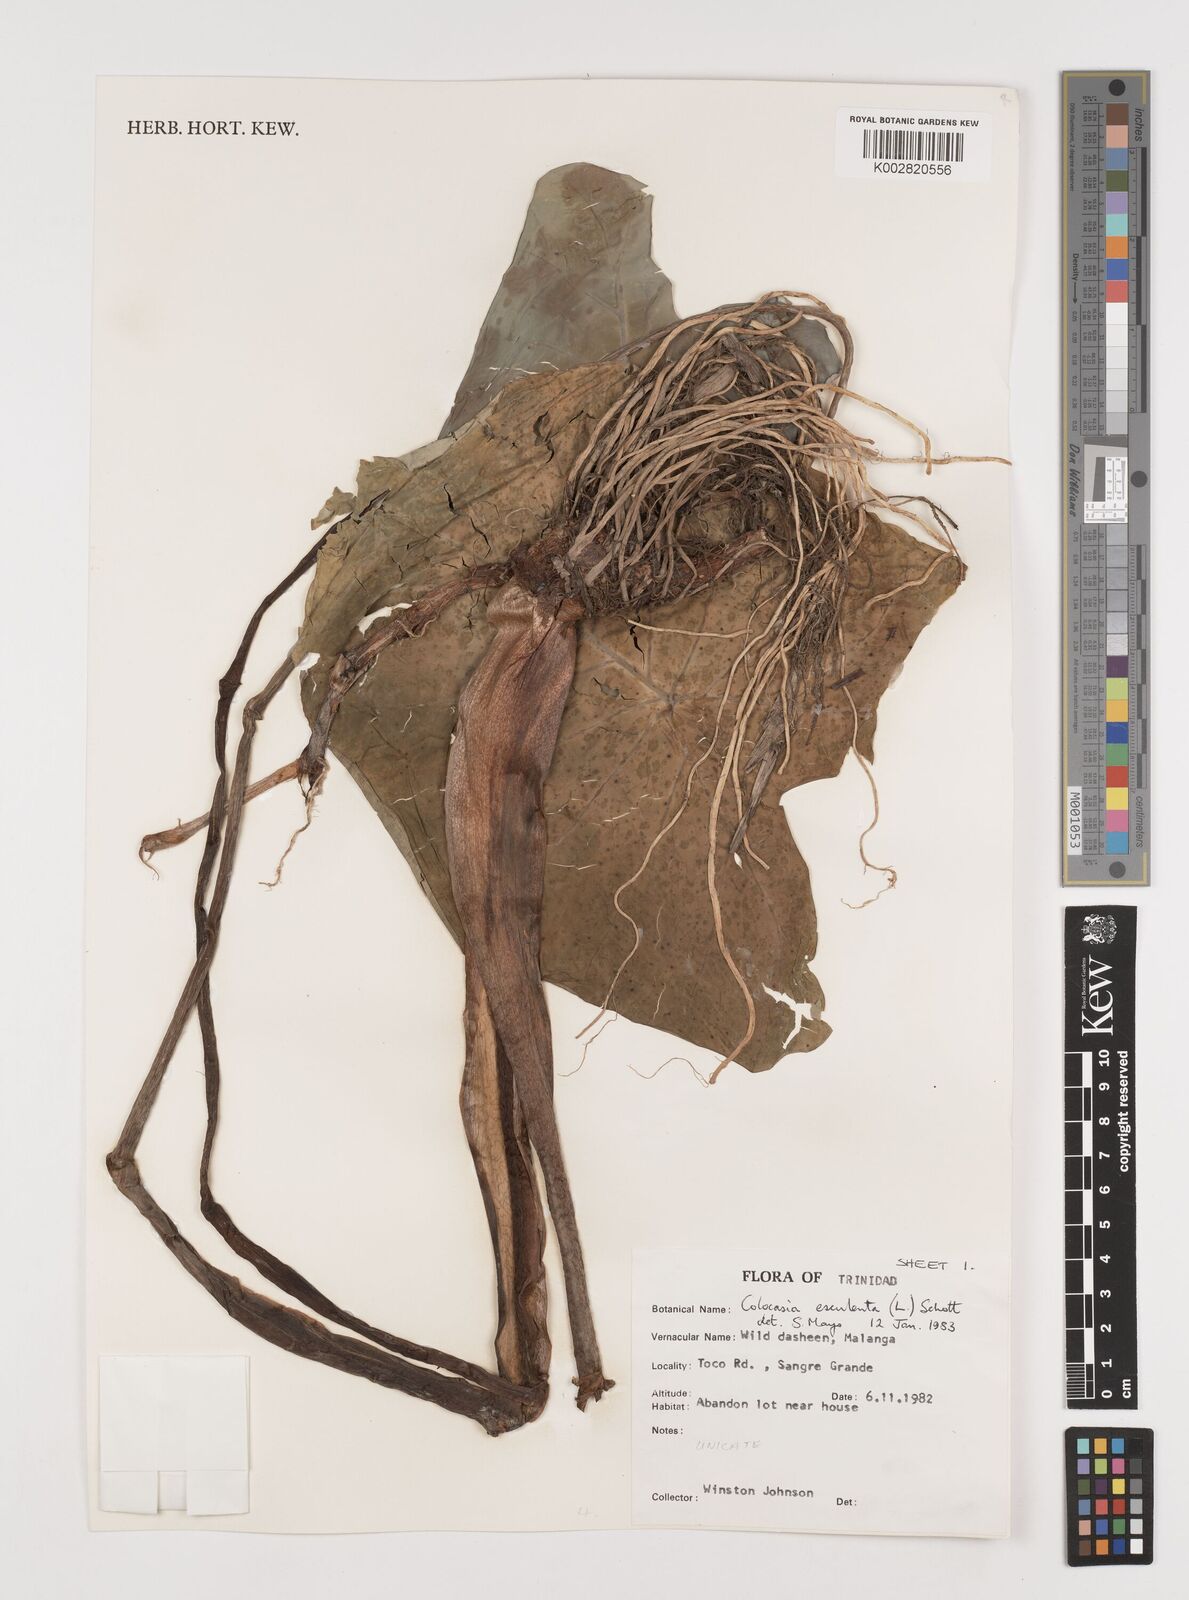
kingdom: Plantae
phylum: Tracheophyta
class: Liliopsida
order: Alismatales
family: Araceae
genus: Colocasia
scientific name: Colocasia esculenta
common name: Taro
